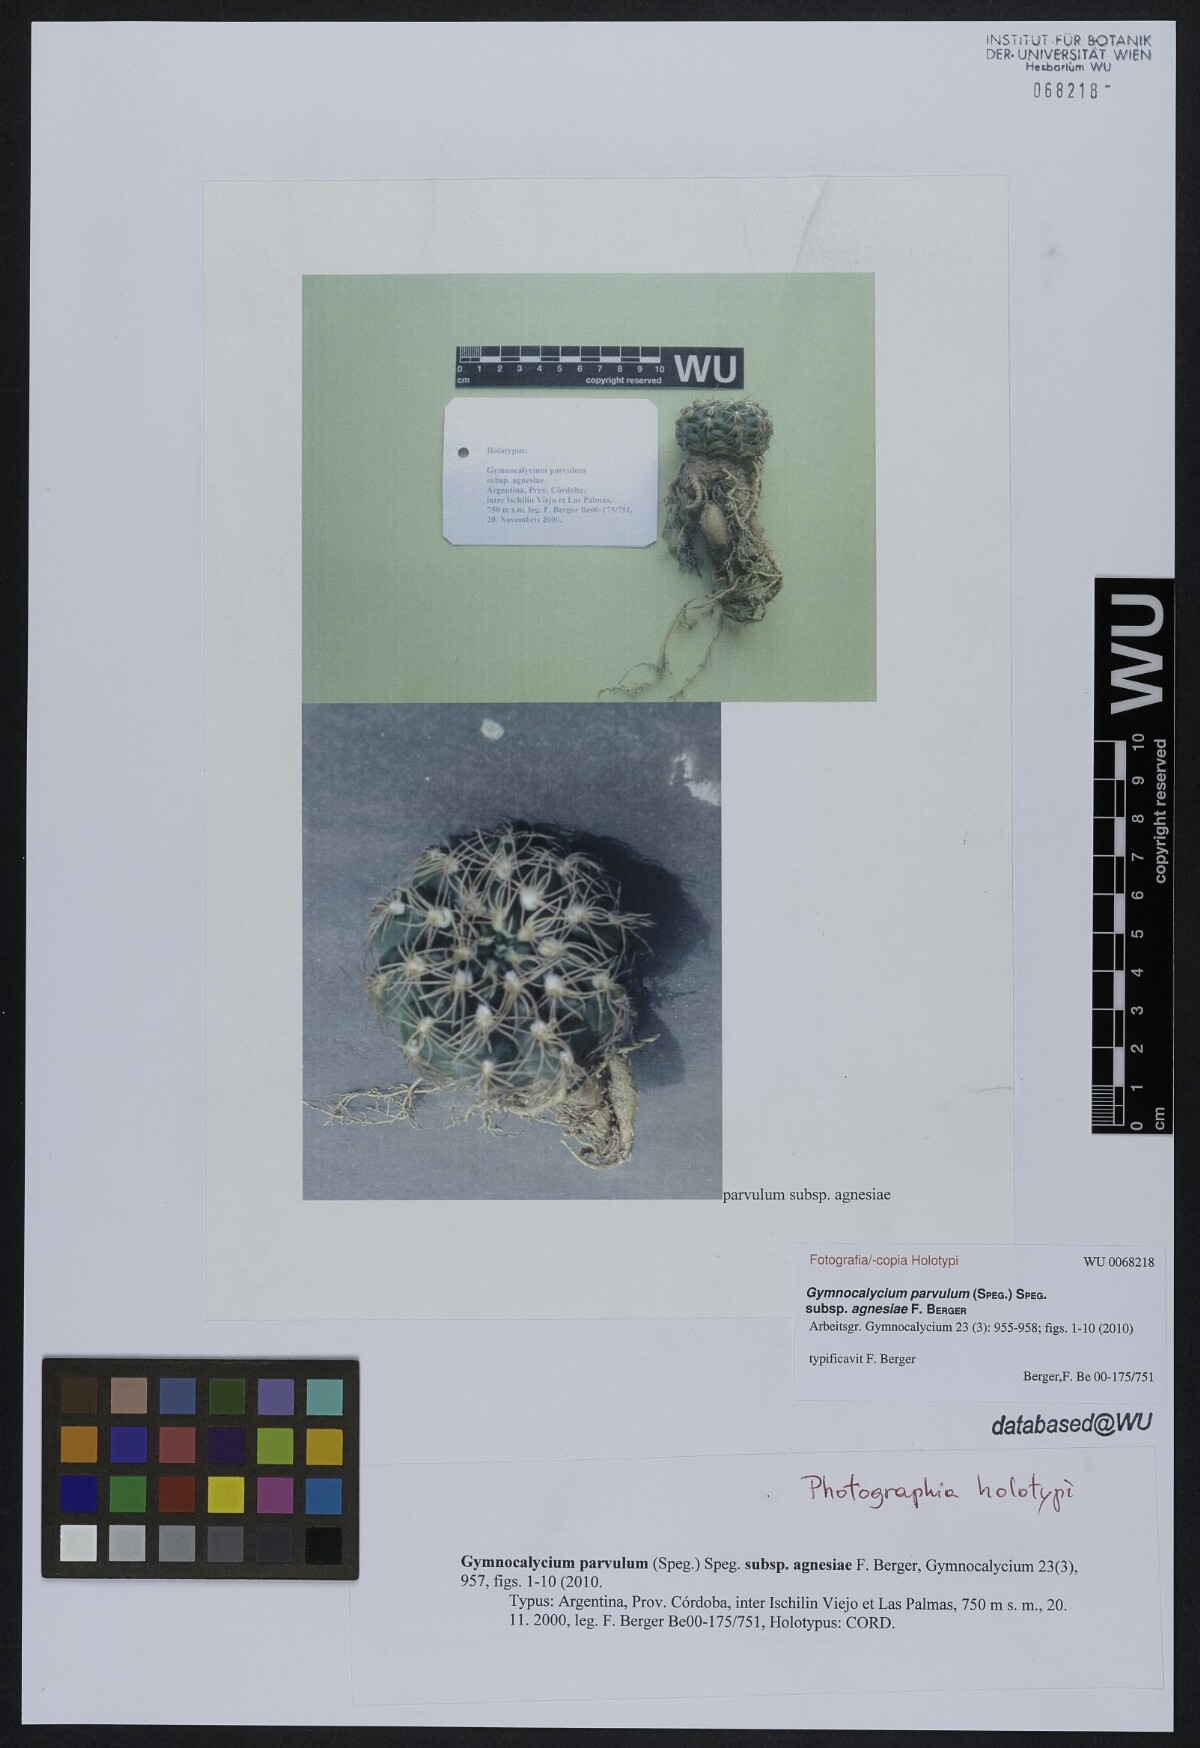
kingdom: Plantae
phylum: Tracheophyta
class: Magnoliopsida
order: Caryophyllales
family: Cactaceae
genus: Gymnocalycium
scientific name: Gymnocalycium calochlorum
